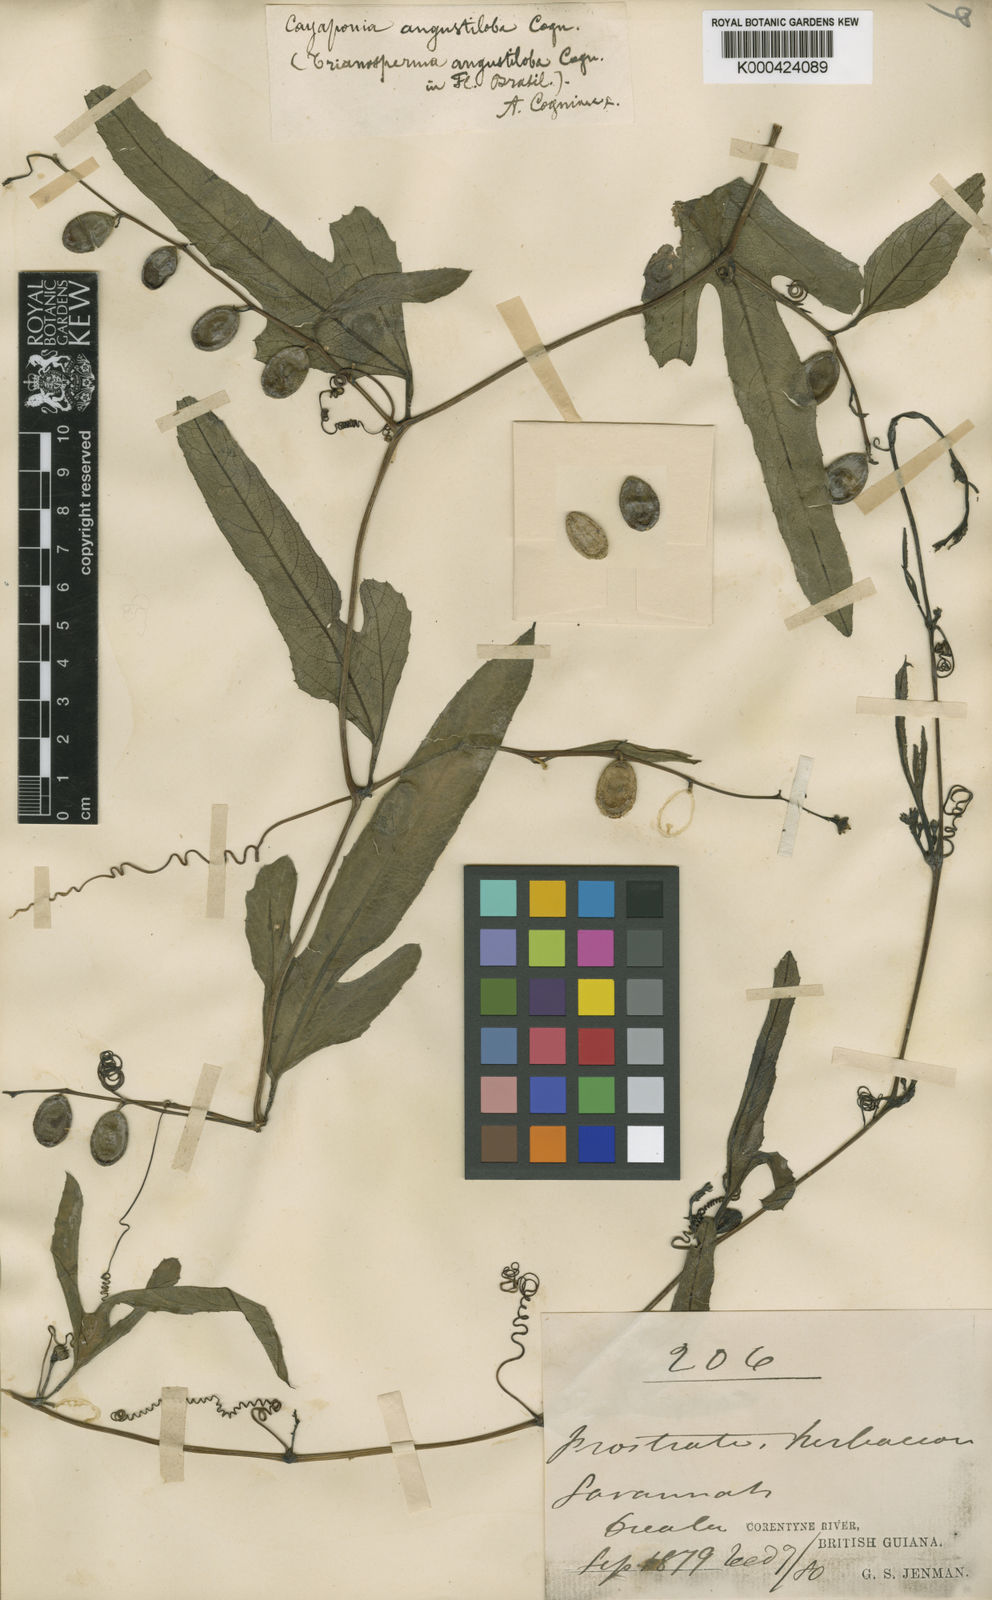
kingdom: Plantae
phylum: Tracheophyta
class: Magnoliopsida
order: Cucurbitales
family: Cucurbitaceae
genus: Cayaponia
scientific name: Cayaponia angustiloba
